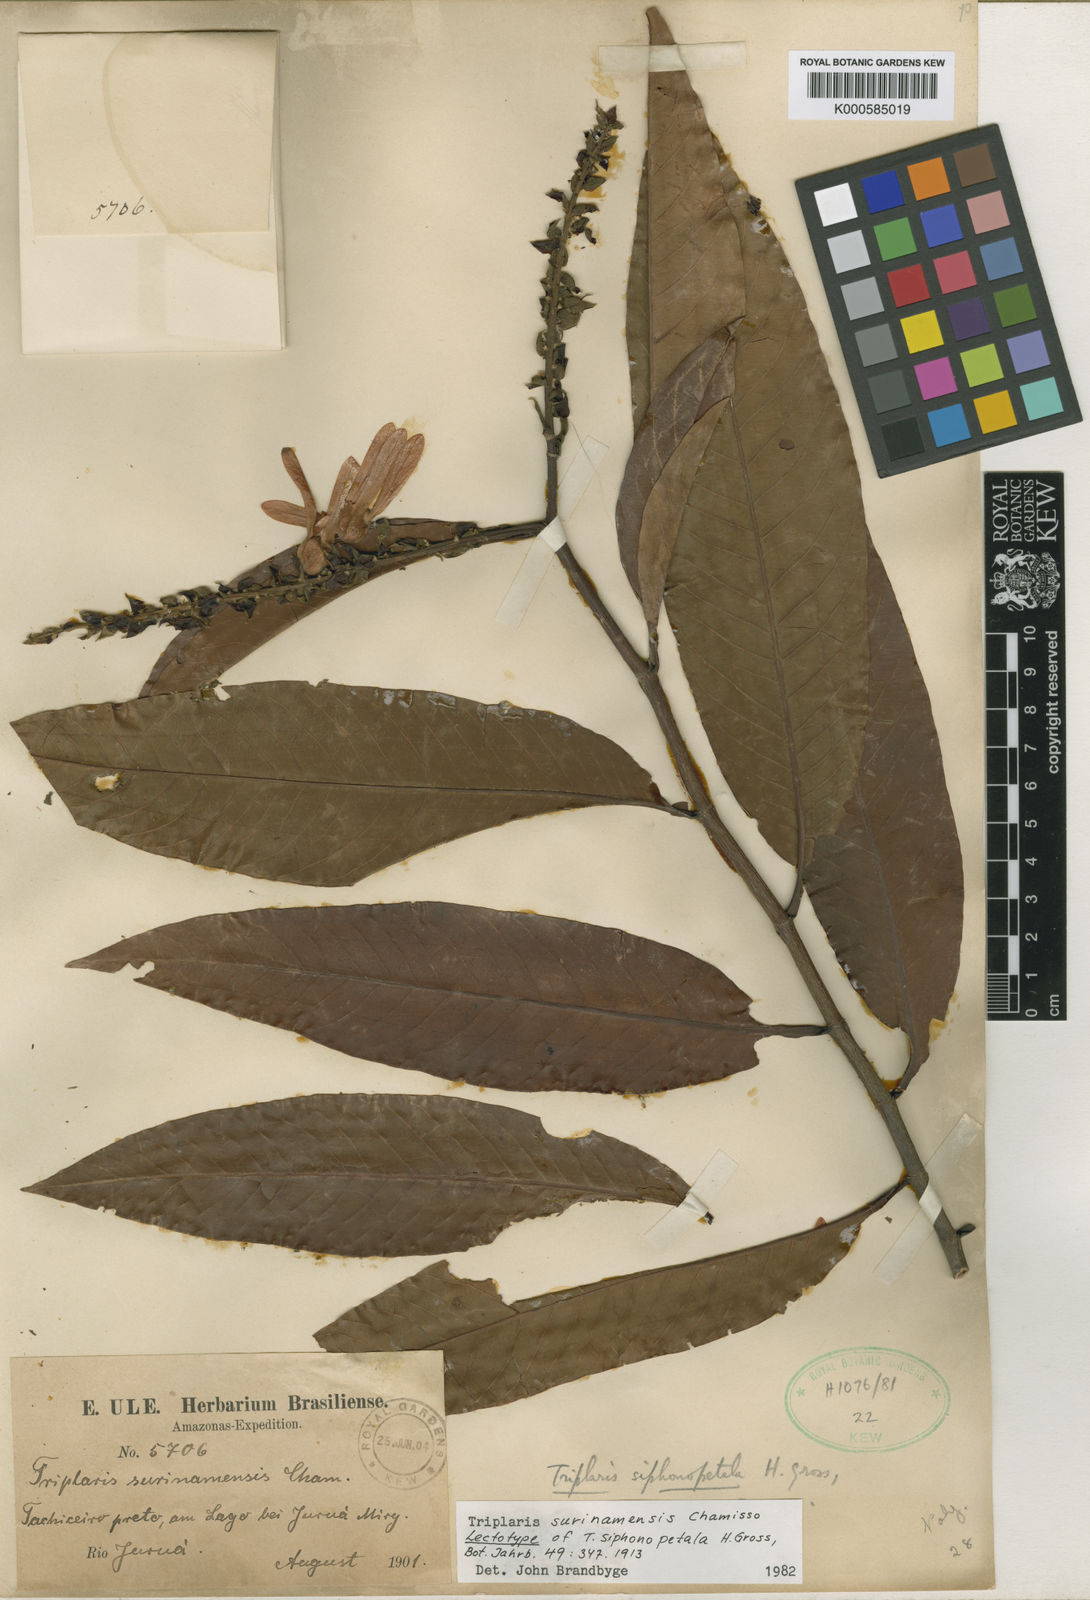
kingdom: Plantae
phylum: Tracheophyta
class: Magnoliopsida
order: Caryophyllales
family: Polygonaceae
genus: Triplaris
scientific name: Triplaris weigeltiana
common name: Long john
